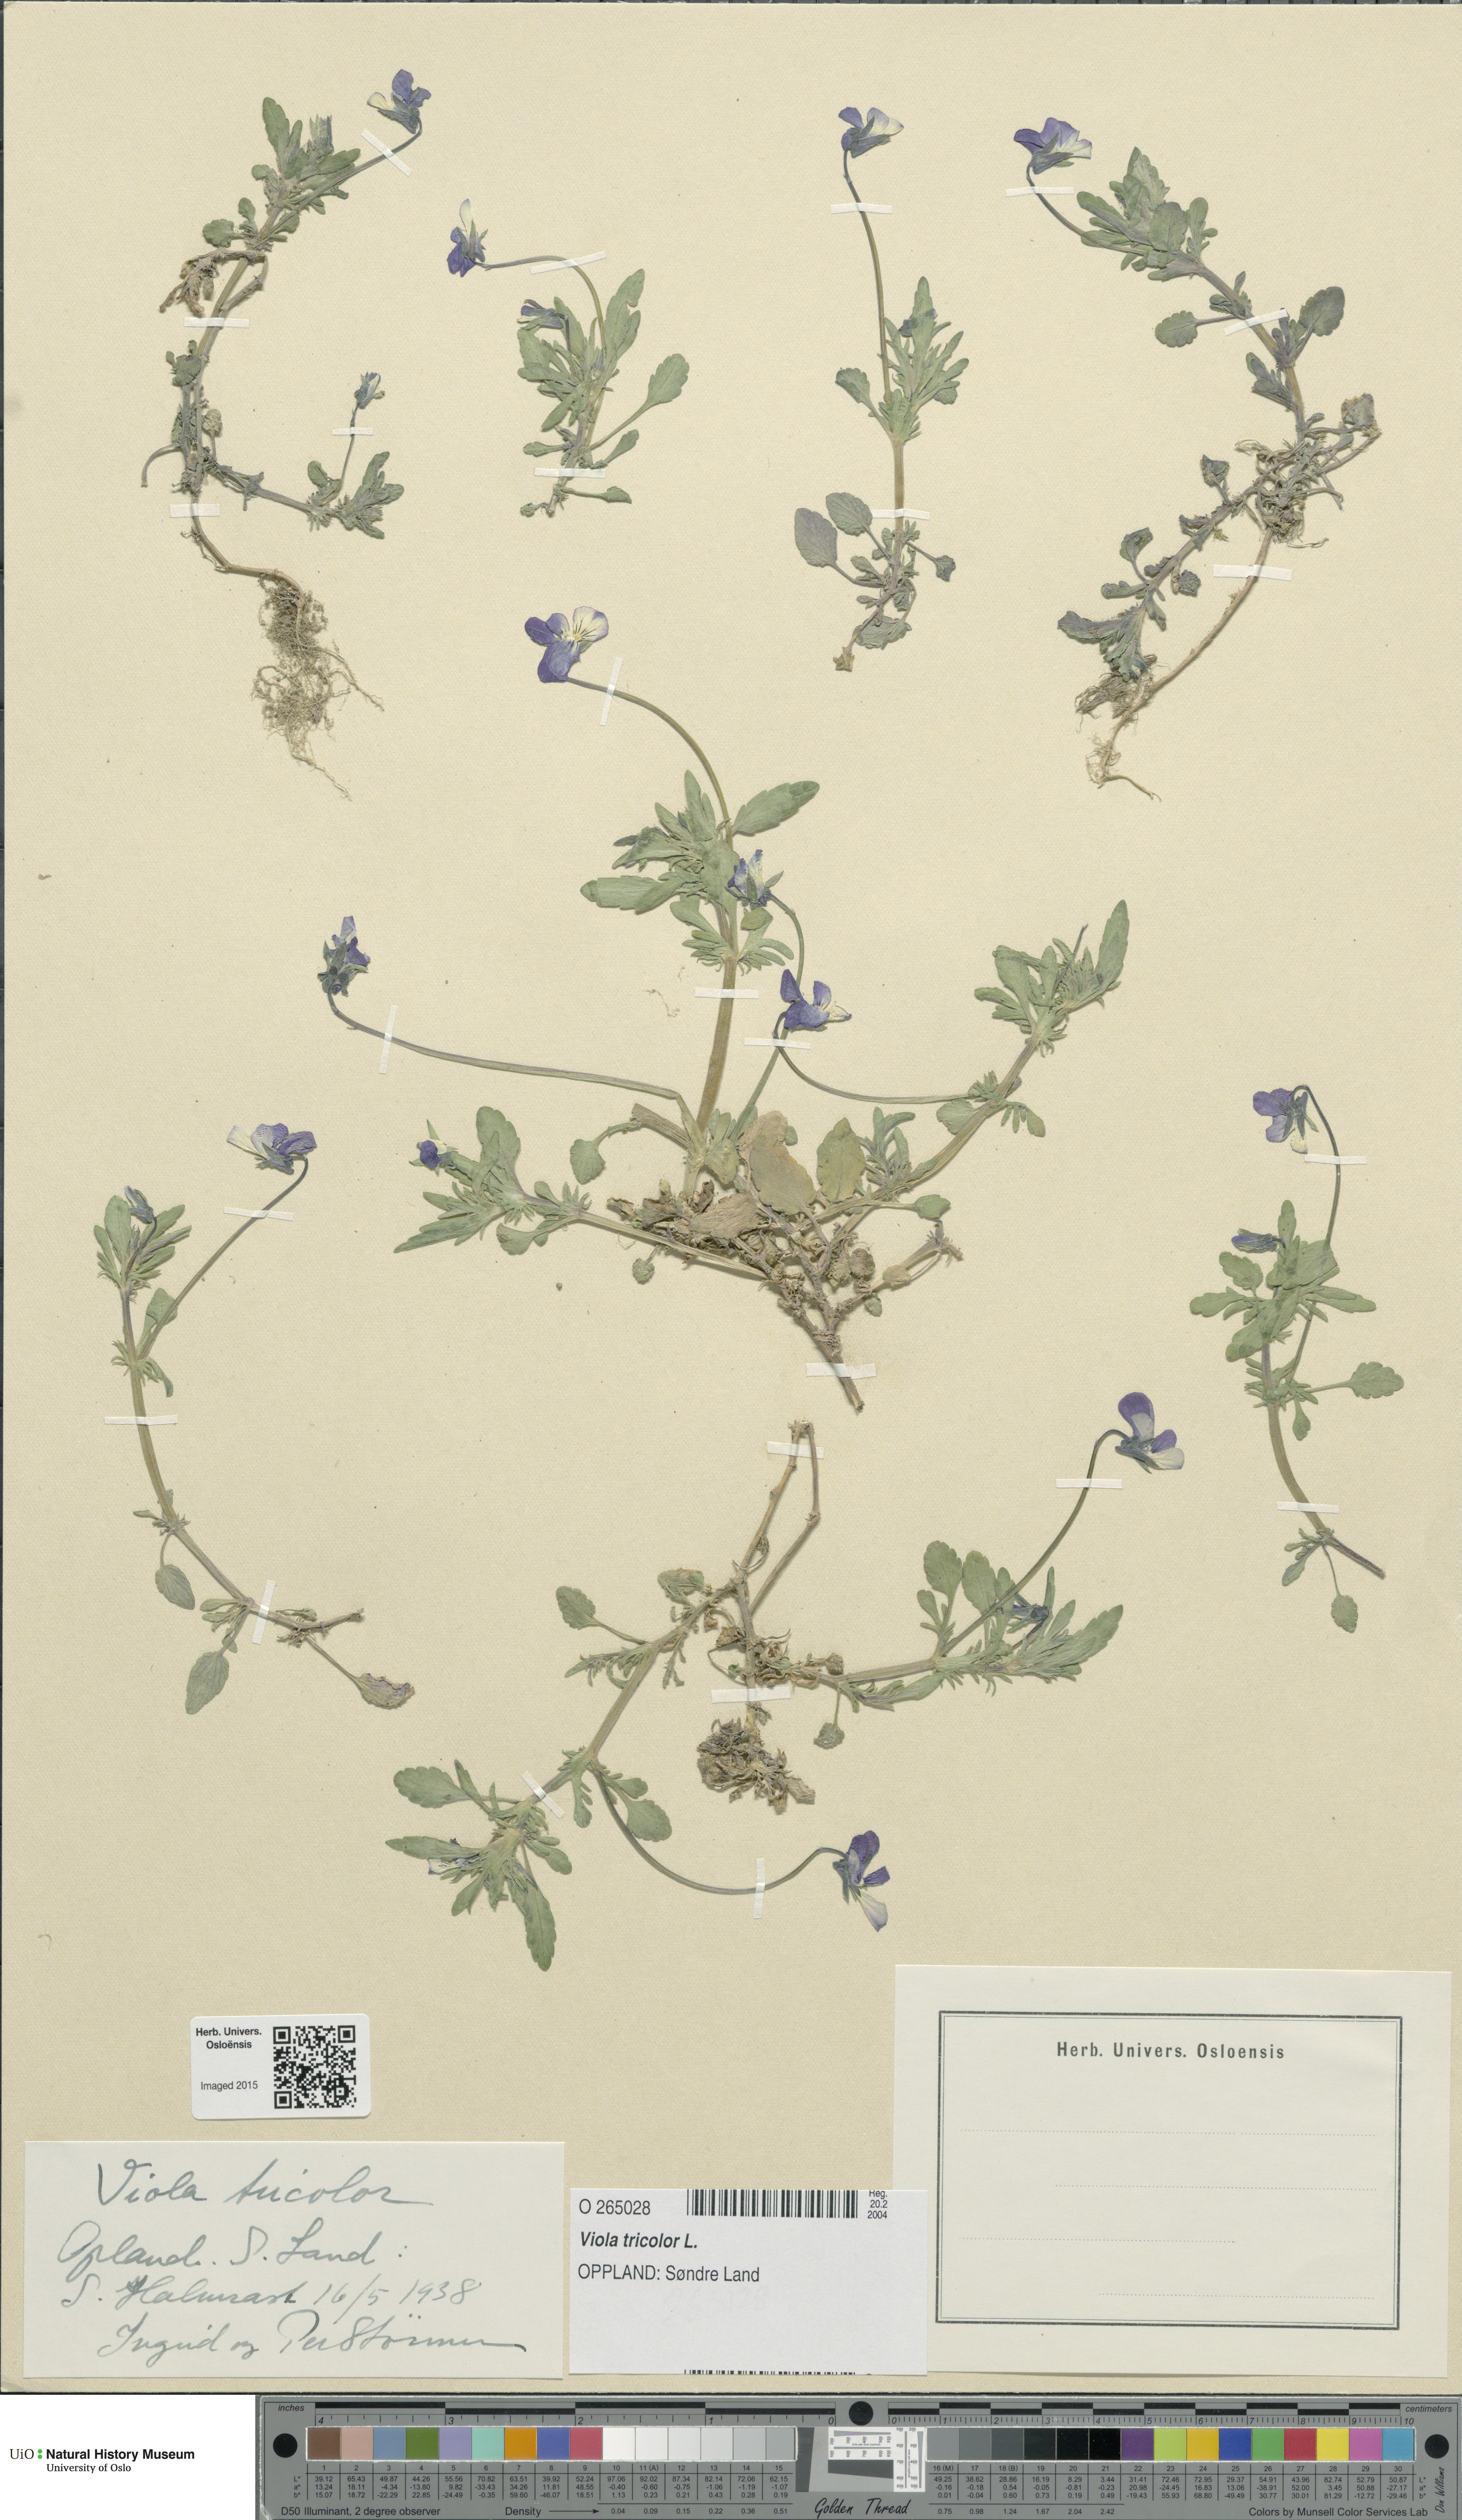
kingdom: Plantae
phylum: Tracheophyta
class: Magnoliopsida
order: Malpighiales
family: Violaceae
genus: Viola
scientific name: Viola tricolor
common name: Pansy
